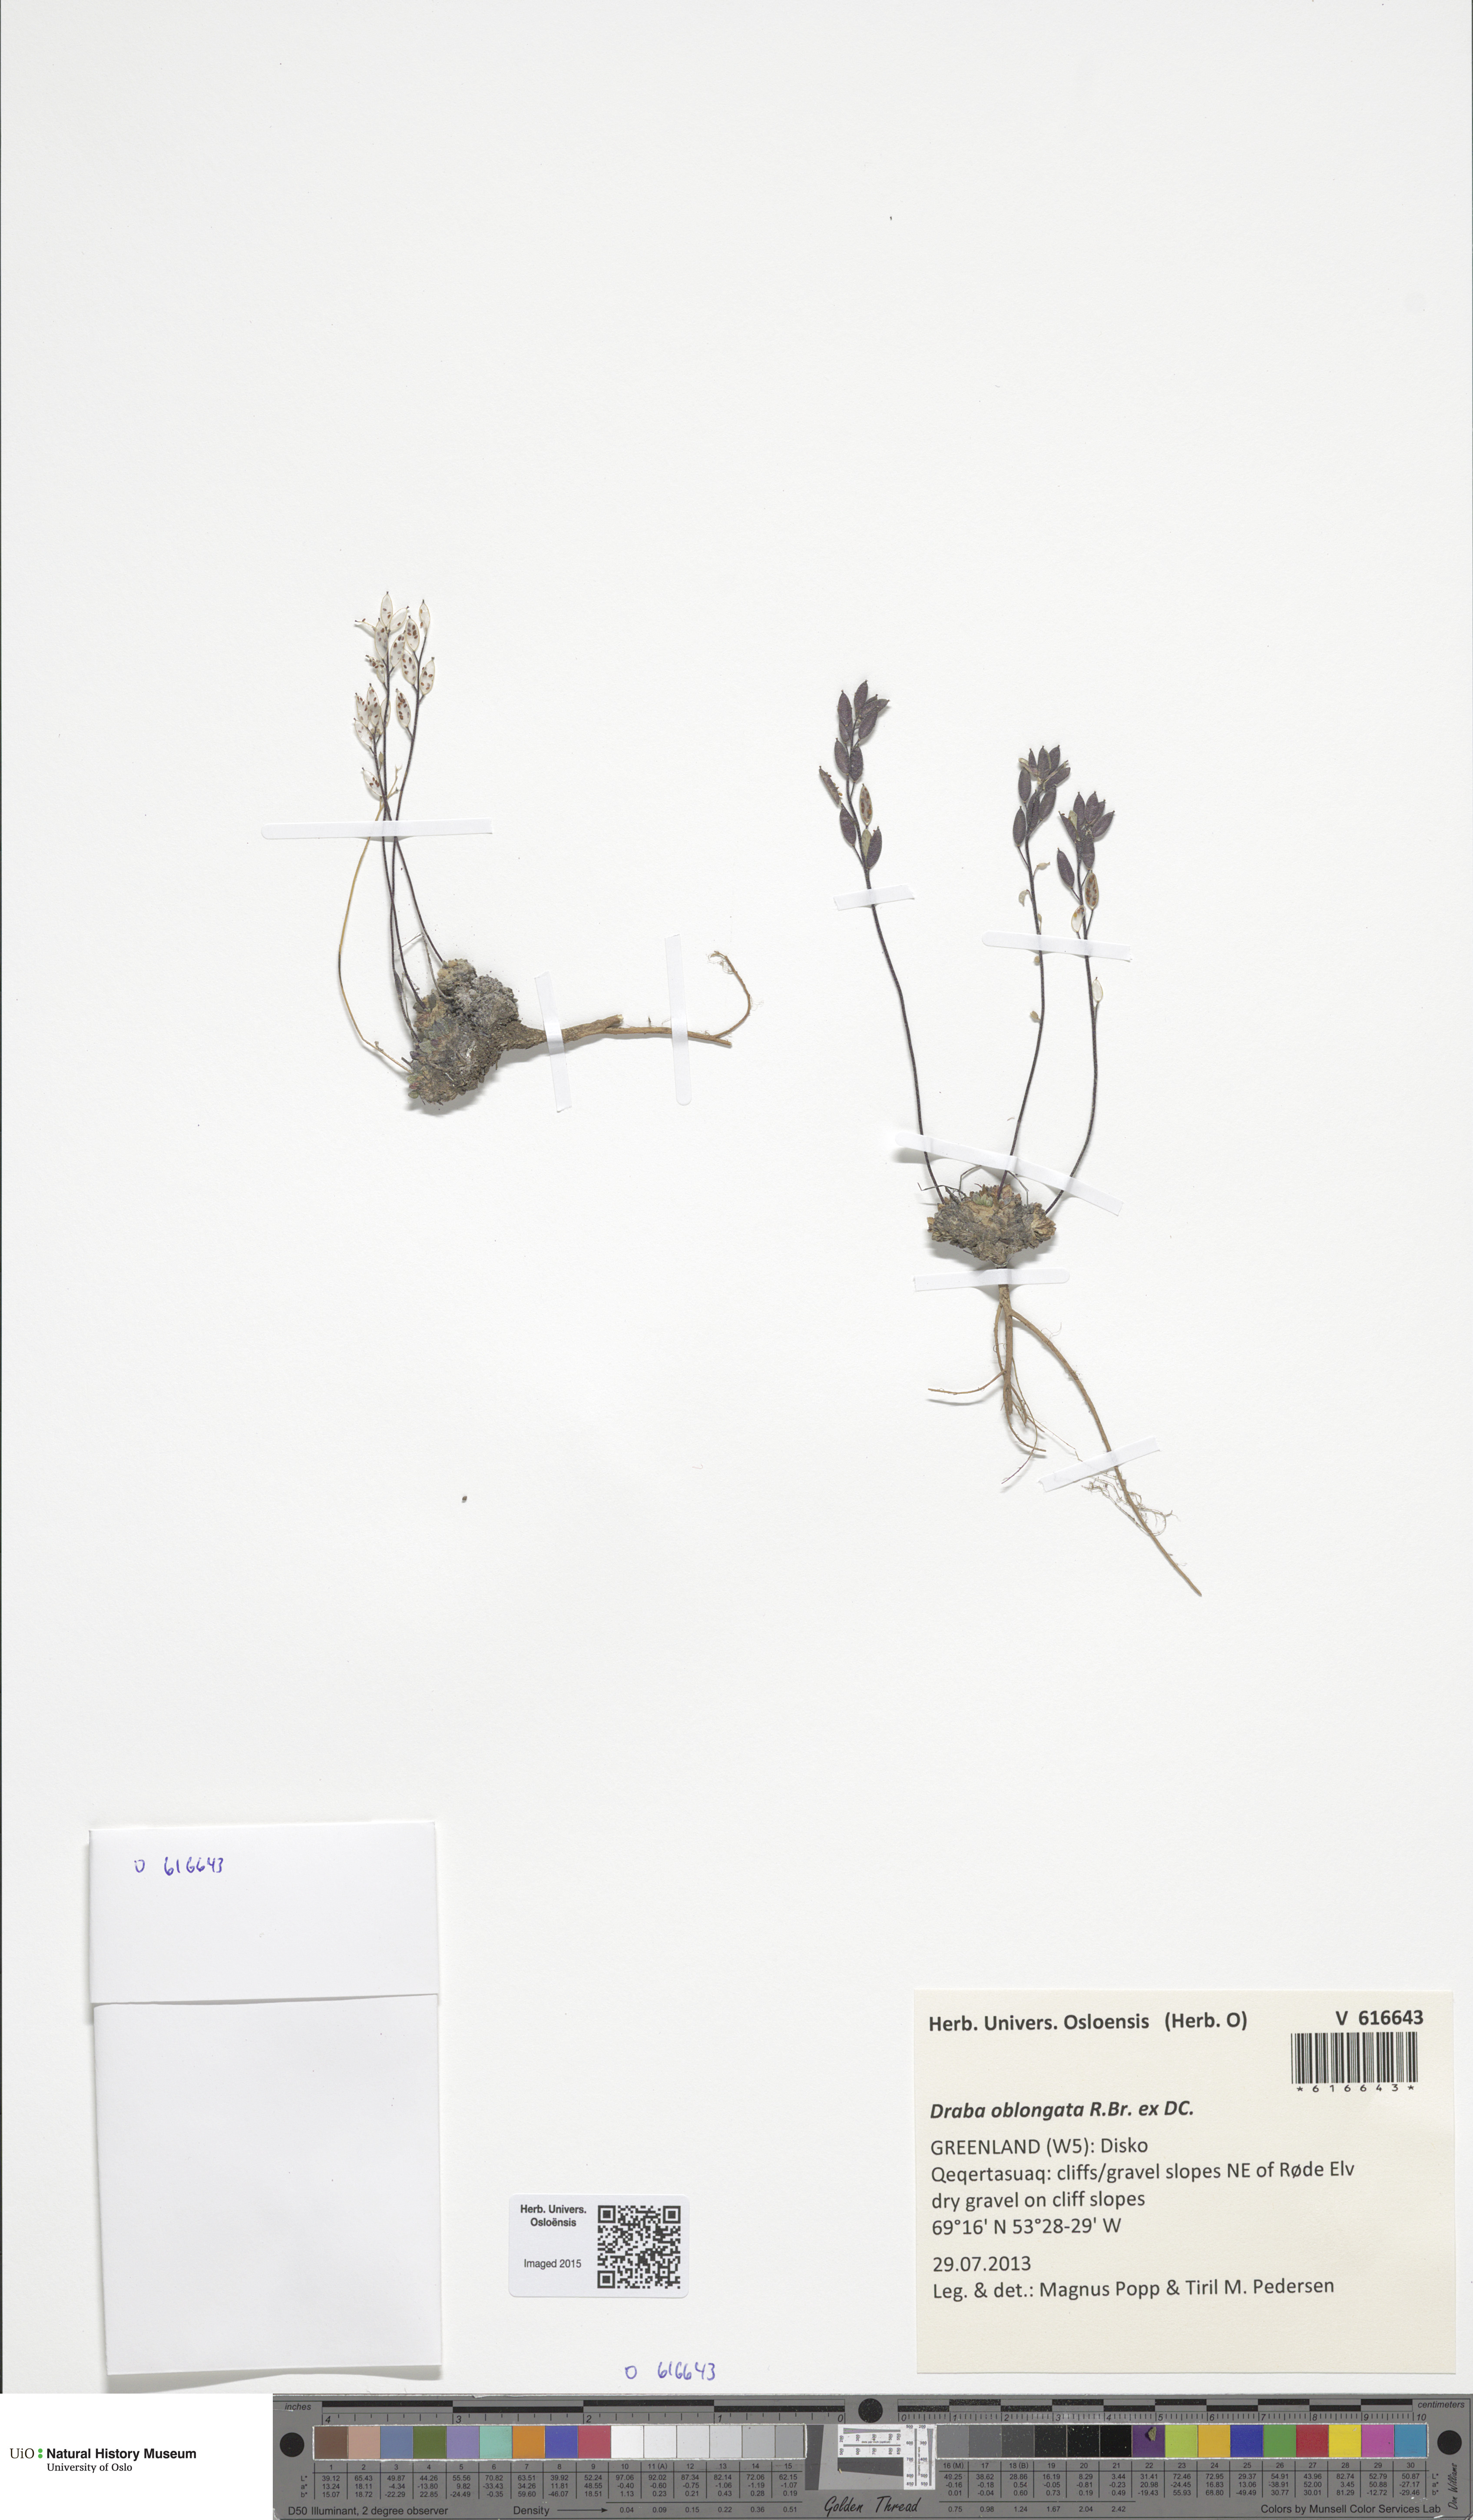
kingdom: Plantae
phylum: Tracheophyta
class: Magnoliopsida
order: Brassicales
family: Brassicaceae
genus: Draba
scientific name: Draba oblongata
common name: Canadian arctic draba
